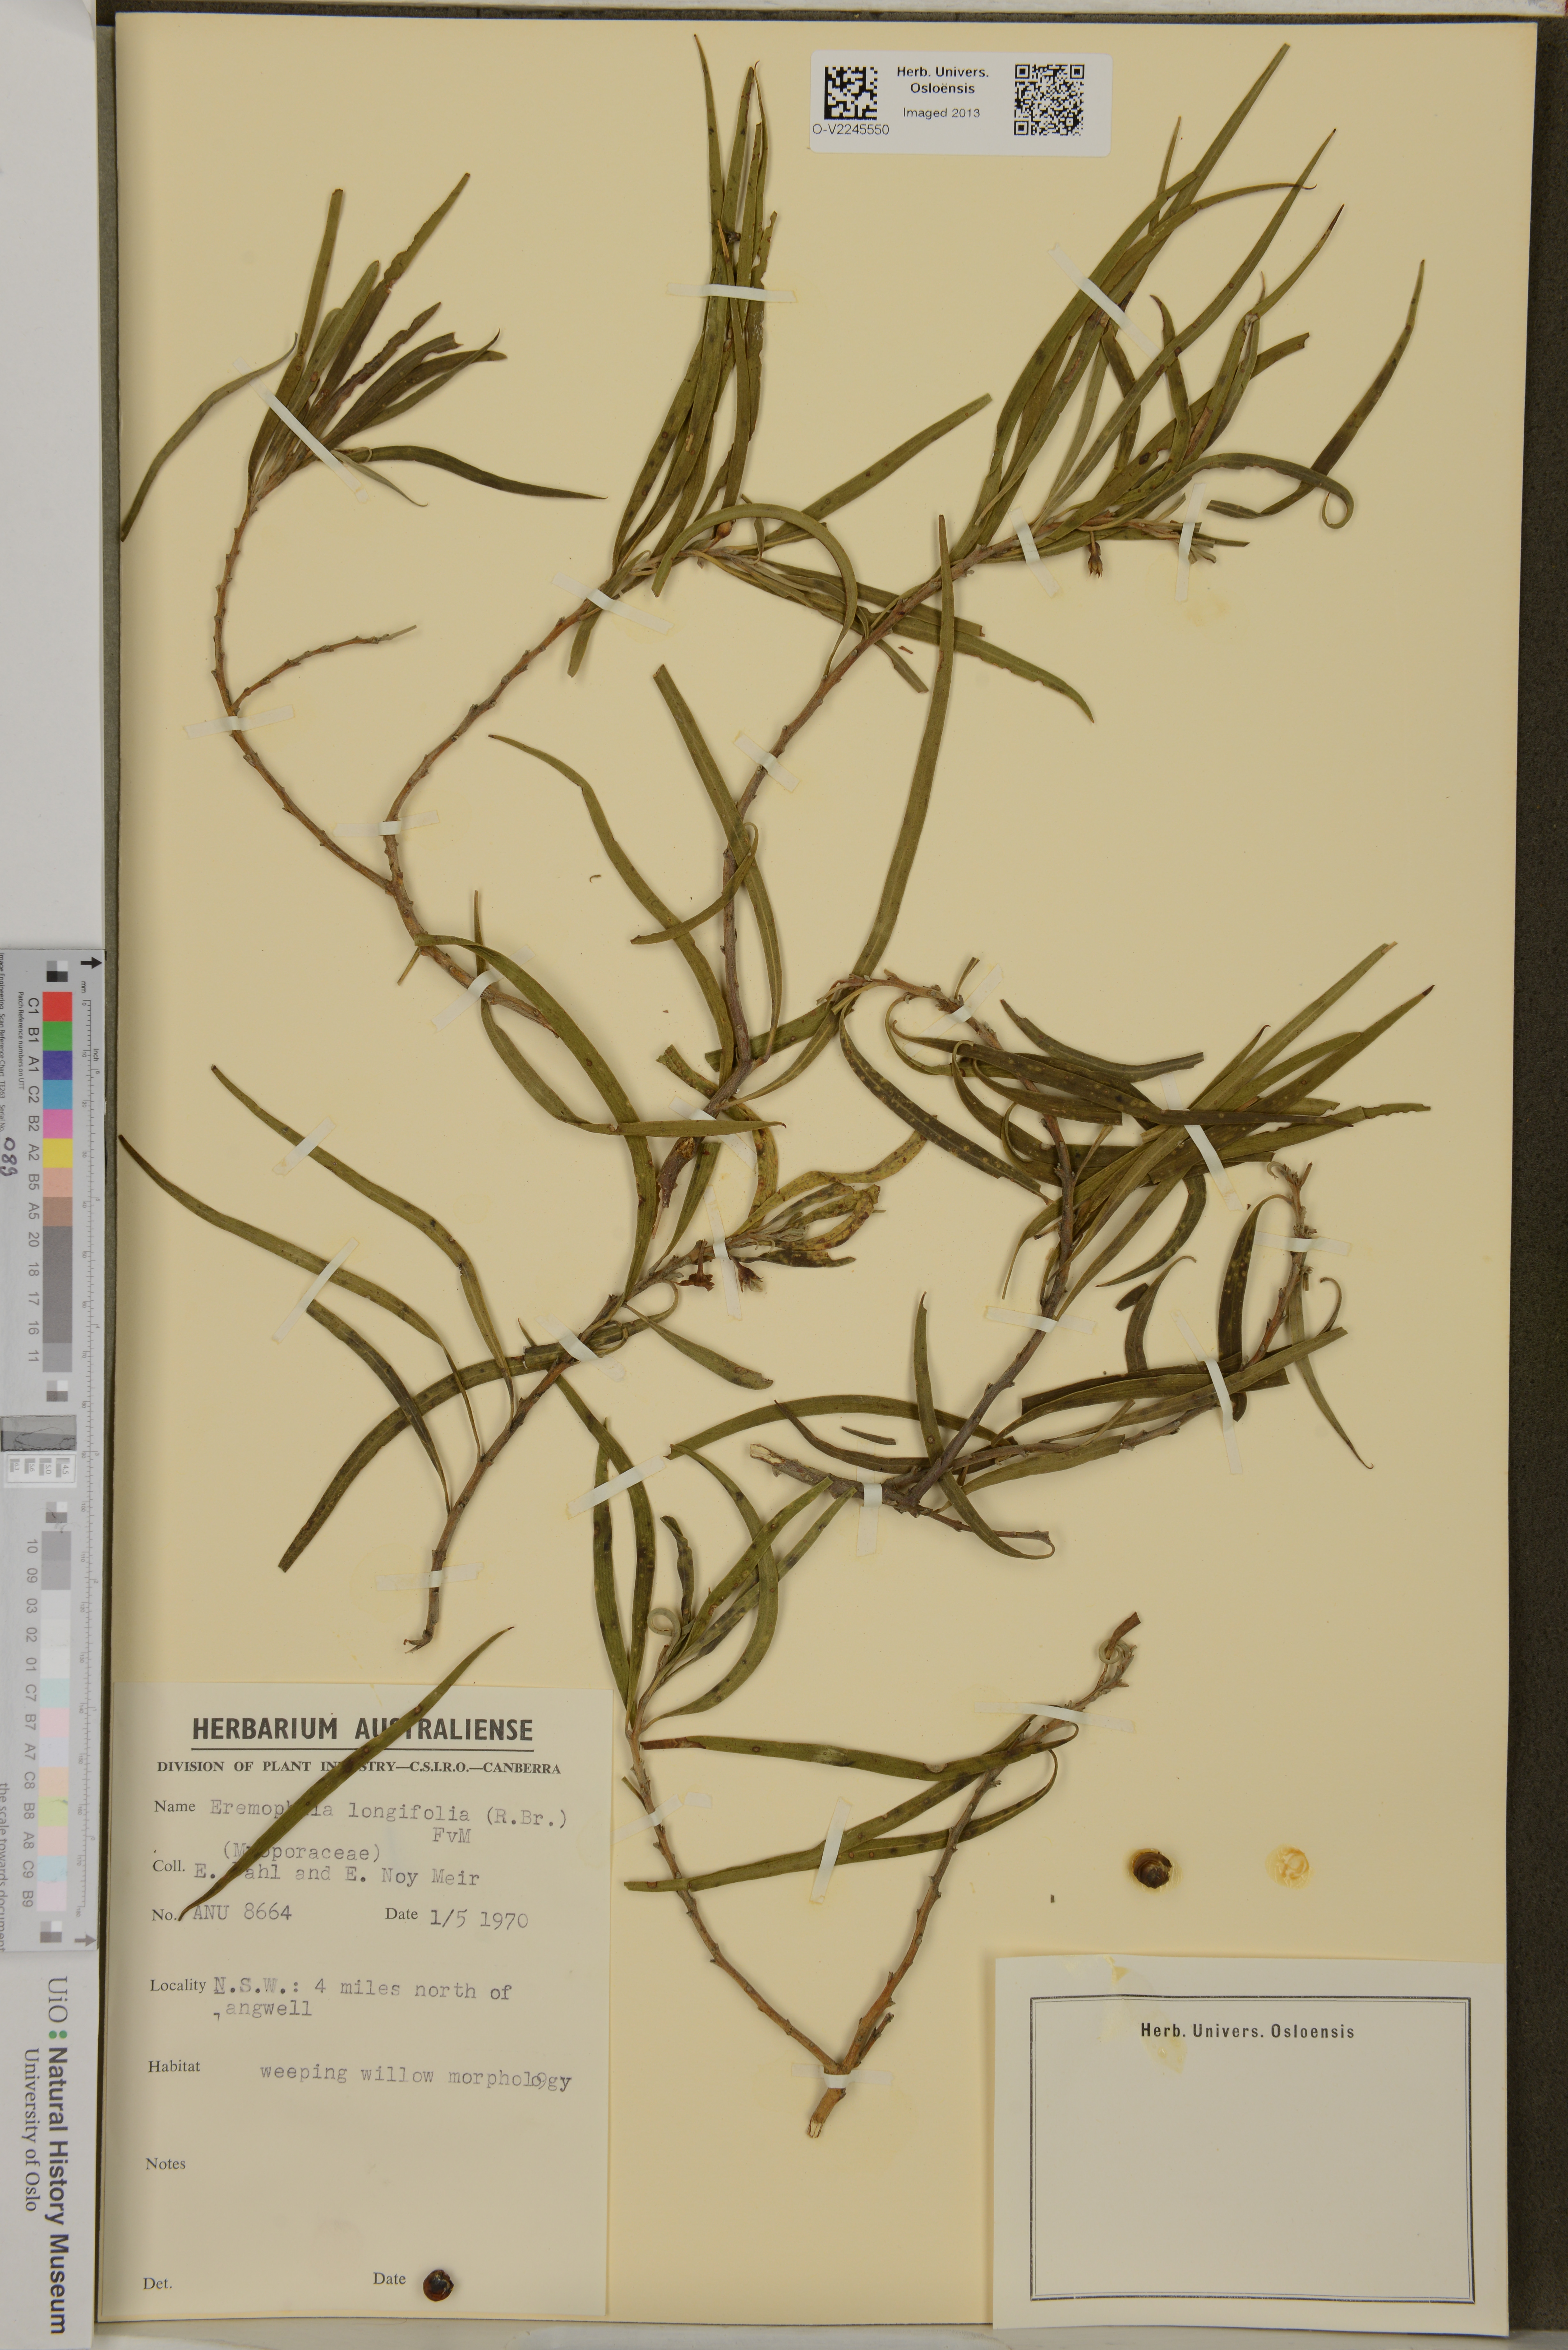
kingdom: Plantae
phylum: Tracheophyta
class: Magnoliopsida
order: Lamiales
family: Scrophulariaceae
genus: Eremophila
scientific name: Eremophila longifolia
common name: Longleaf emubush
